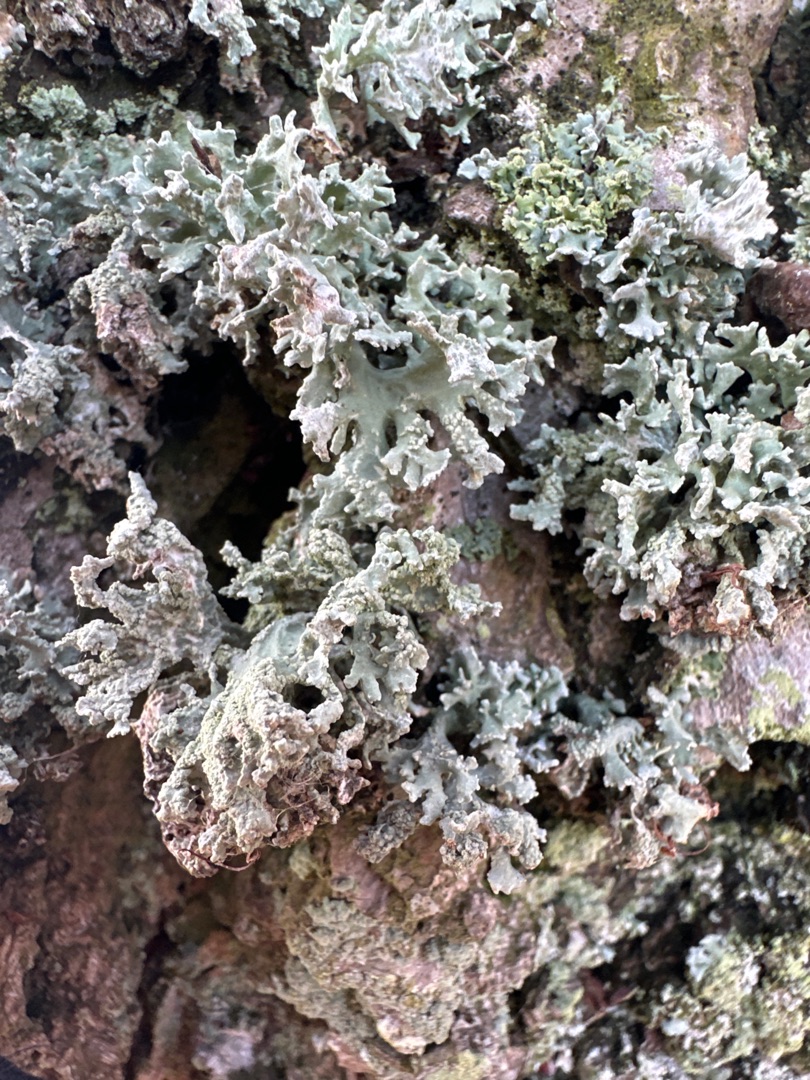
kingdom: Fungi
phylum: Ascomycota
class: Lecanoromycetes
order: Lecanorales
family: Parmeliaceae
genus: Evernia
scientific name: Evernia prunastri
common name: Almindelig slåenlav
